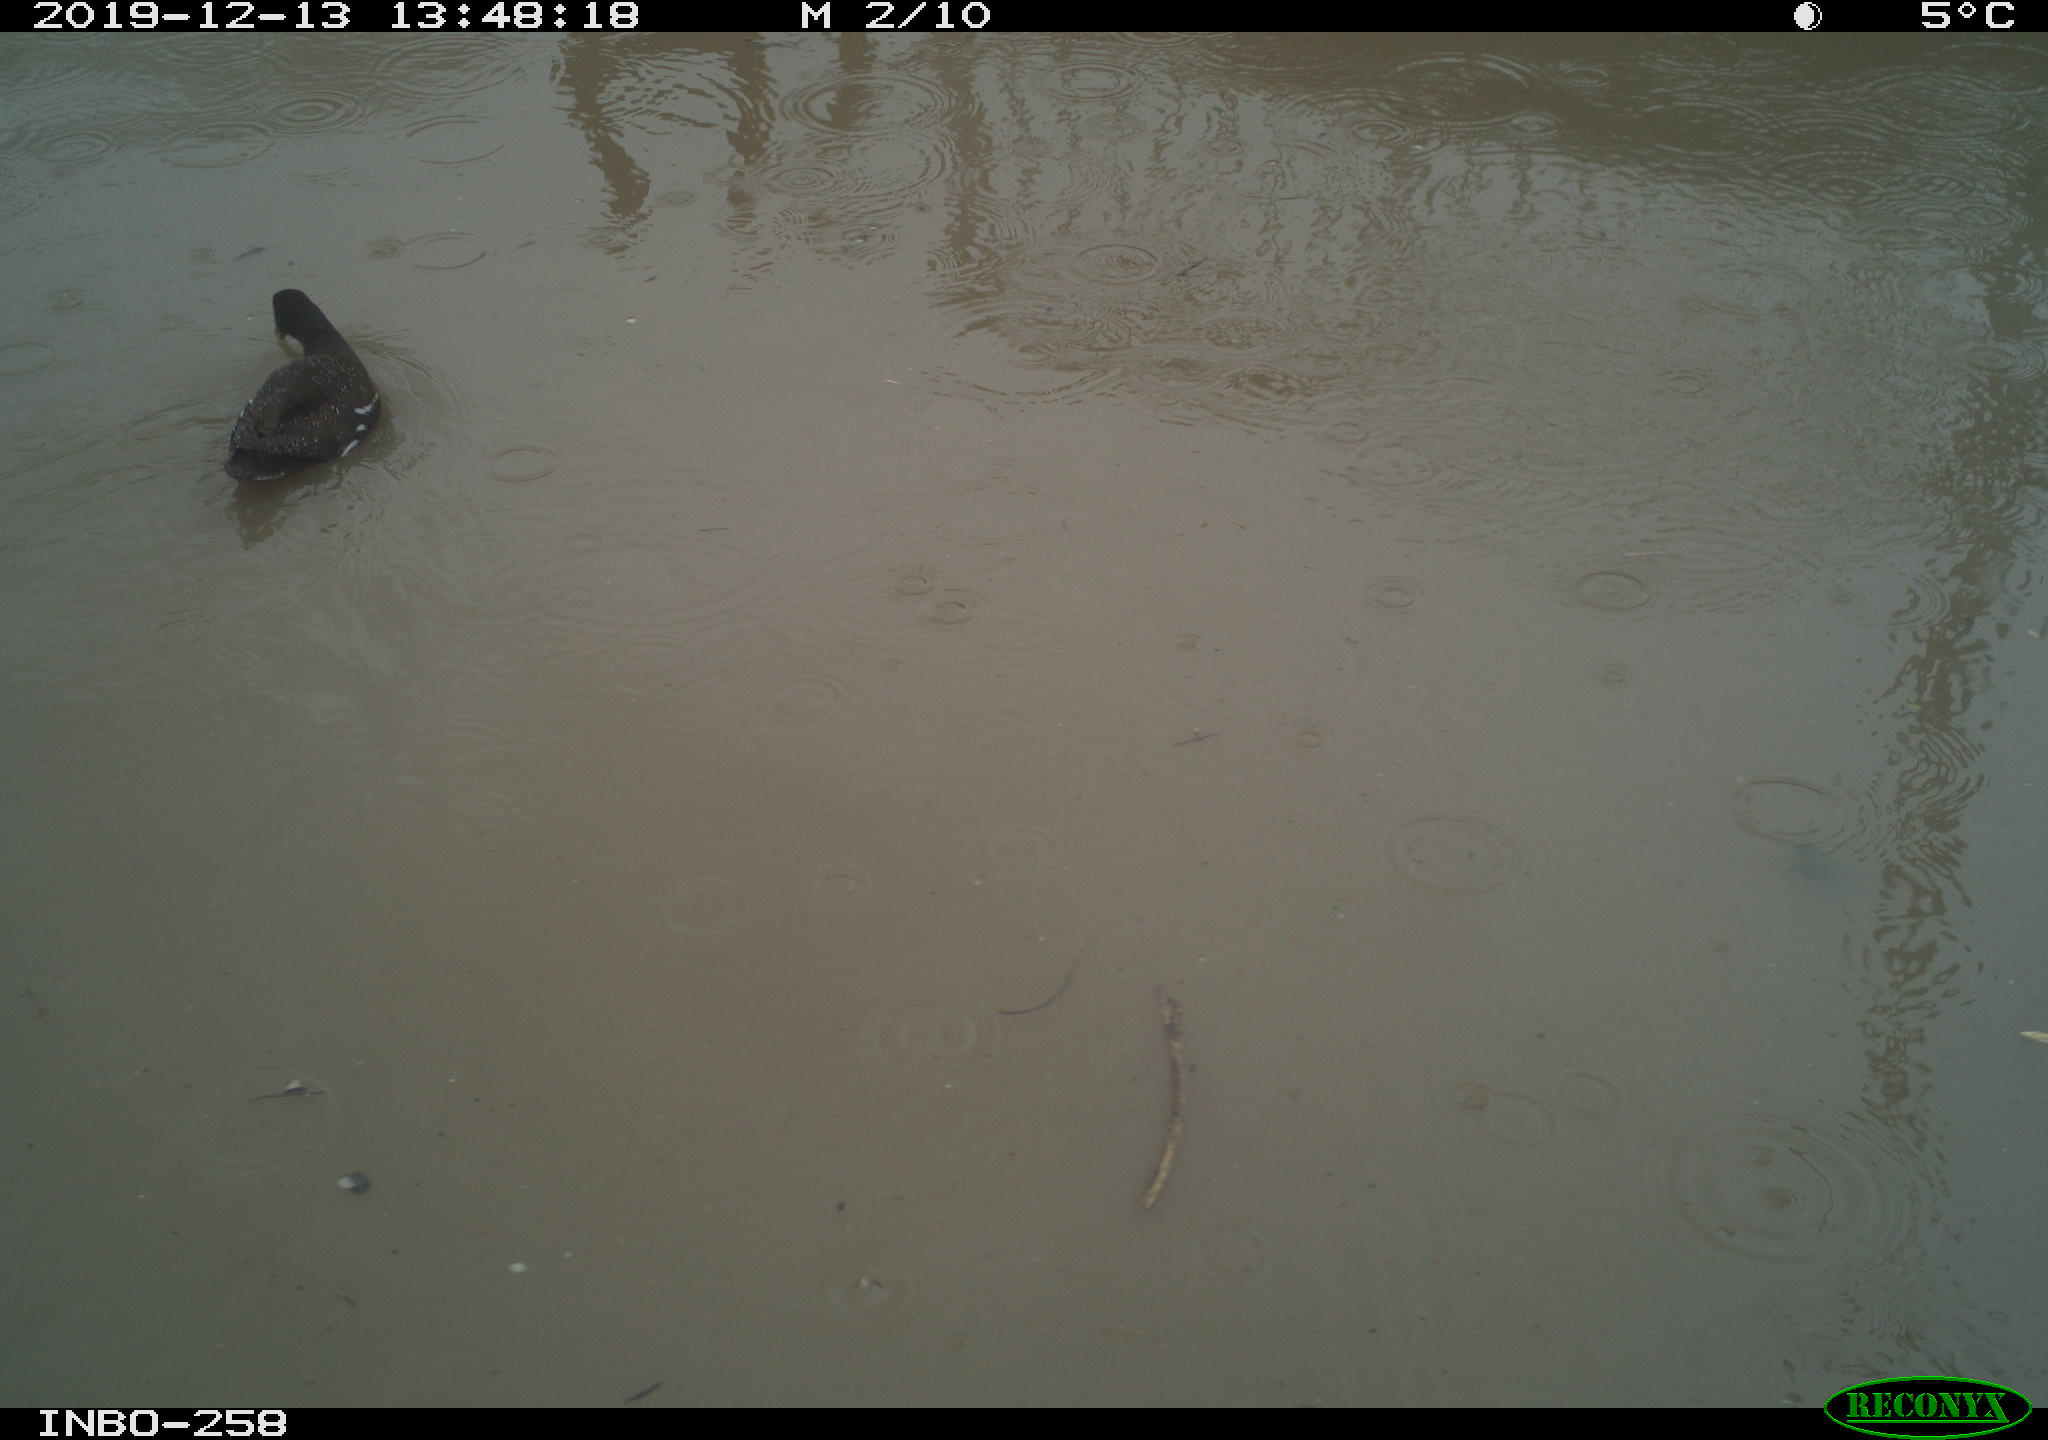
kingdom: Animalia
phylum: Chordata
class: Aves
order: Gruiformes
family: Rallidae
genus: Gallinula
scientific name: Gallinula chloropus
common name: Common moorhen
